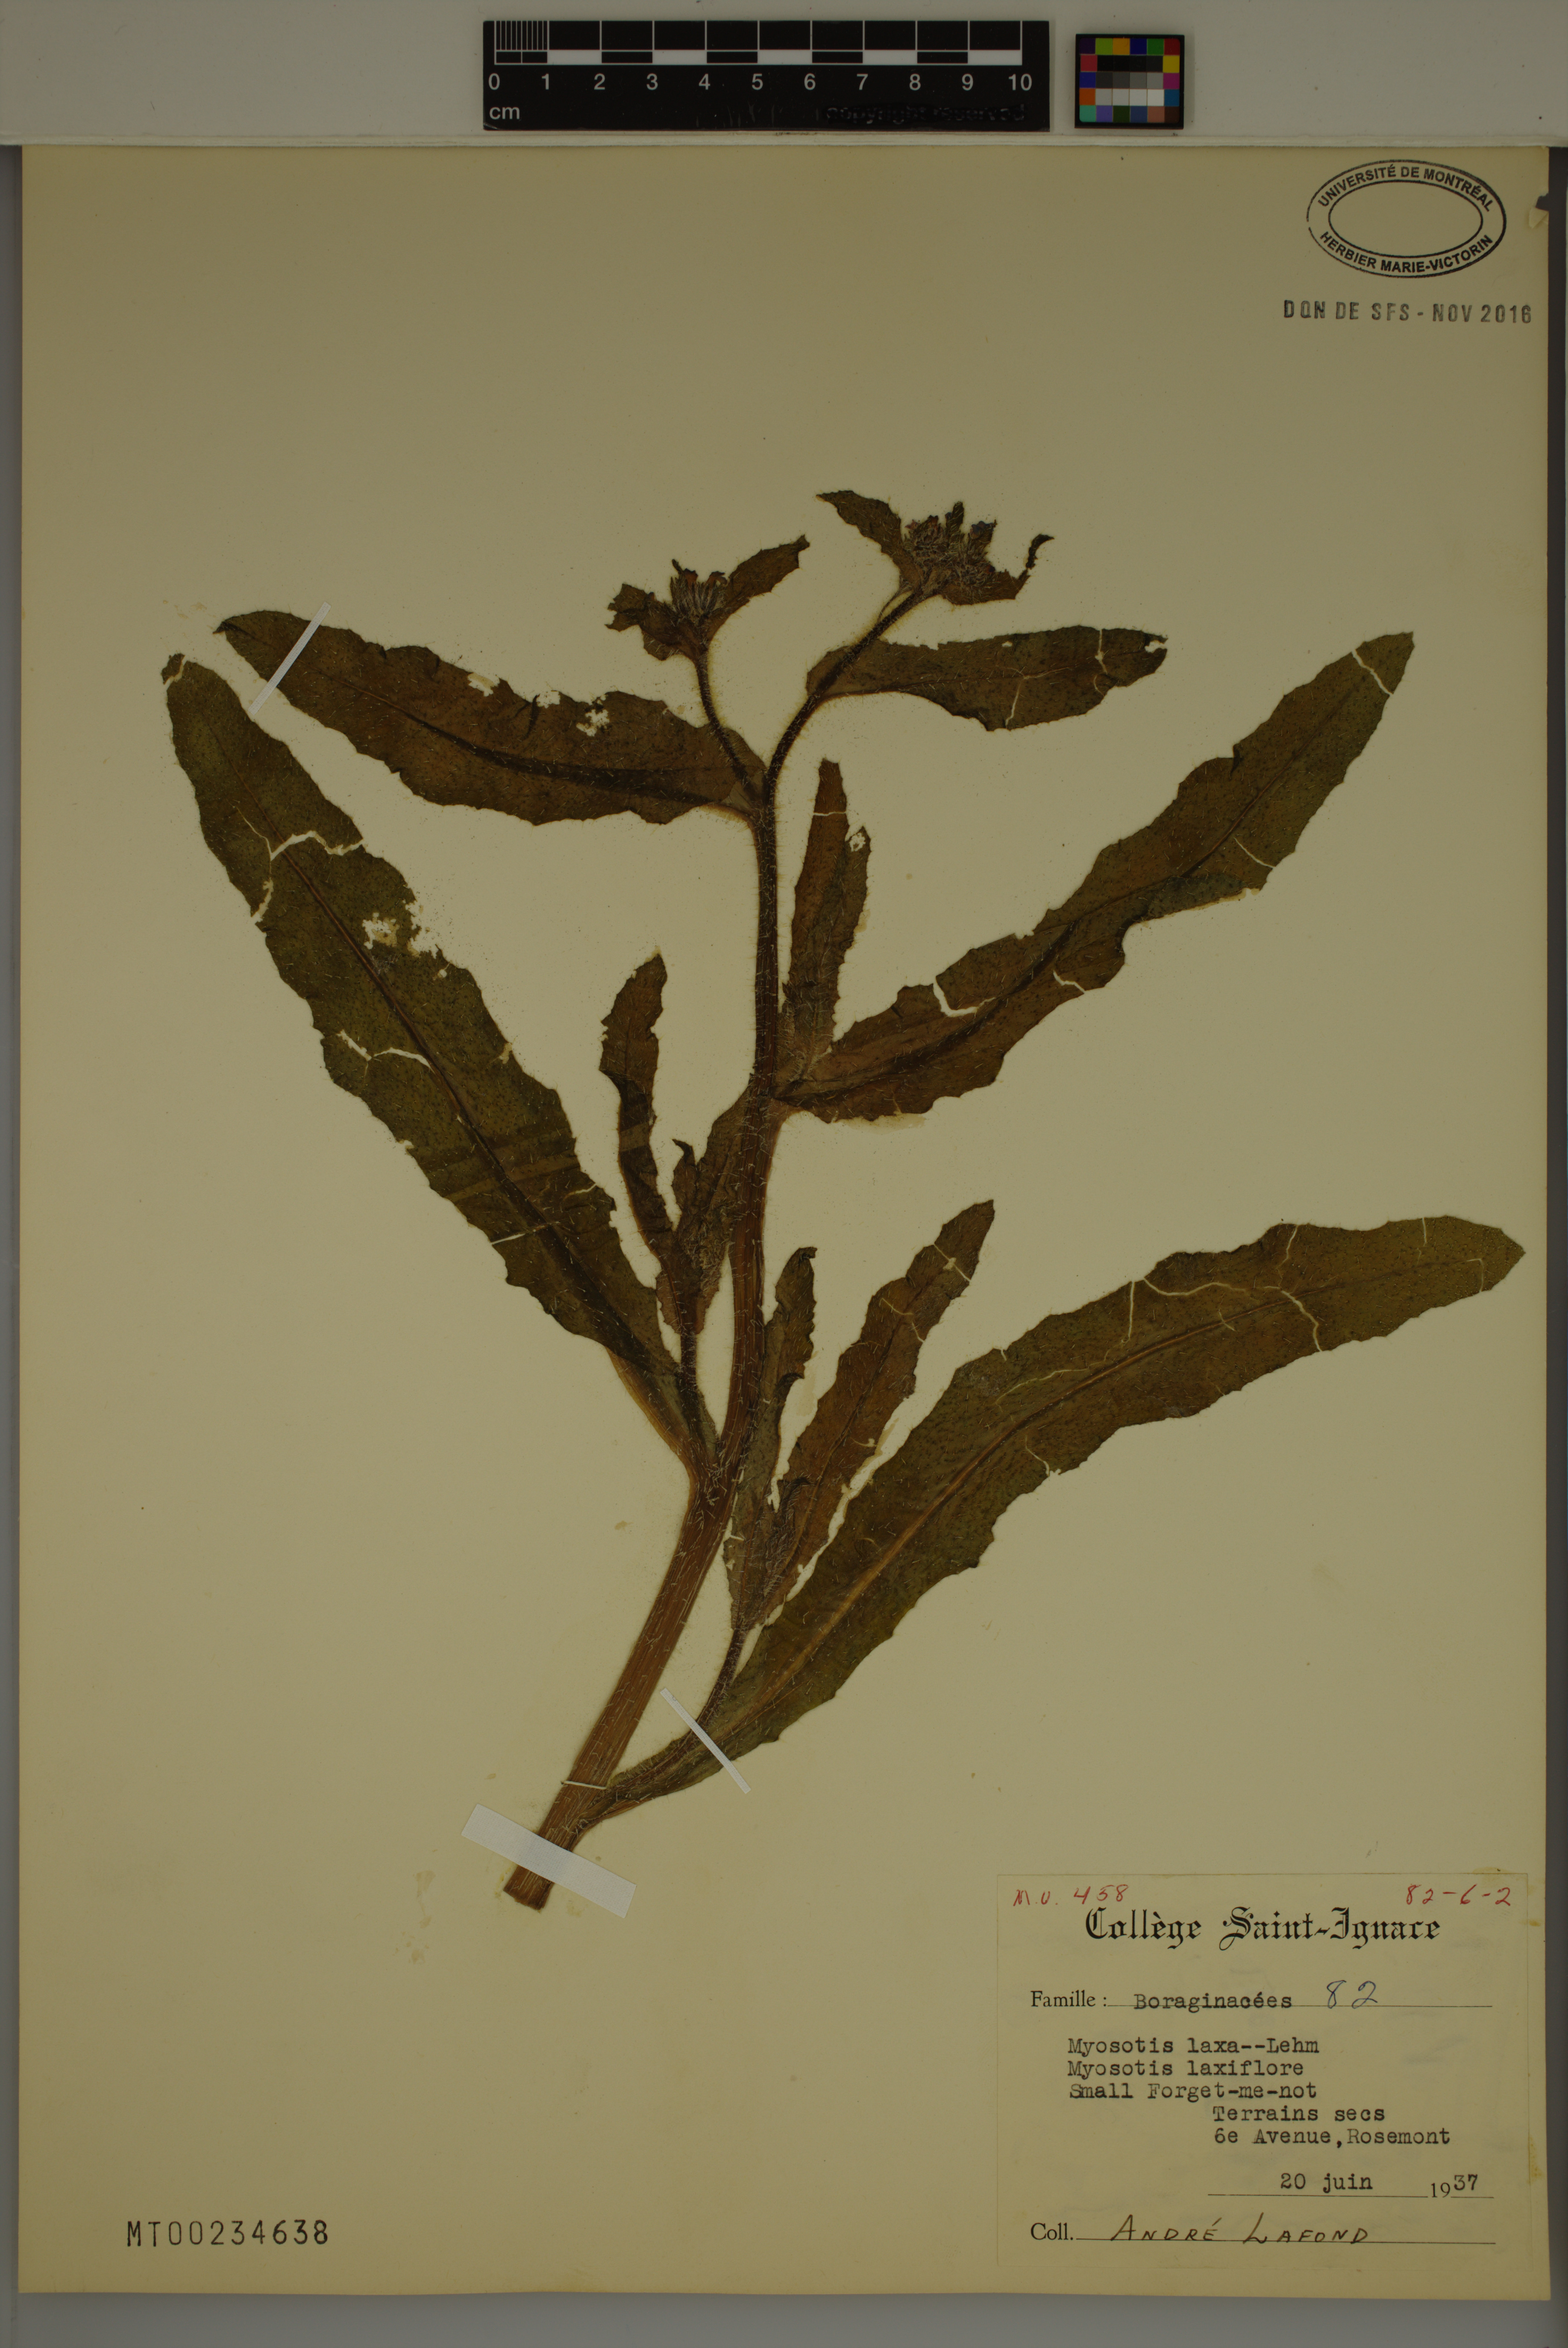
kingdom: Plantae
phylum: Tracheophyta
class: Magnoliopsida
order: Boraginales
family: Boraginaceae
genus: Myosotis
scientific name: Myosotis laxa
